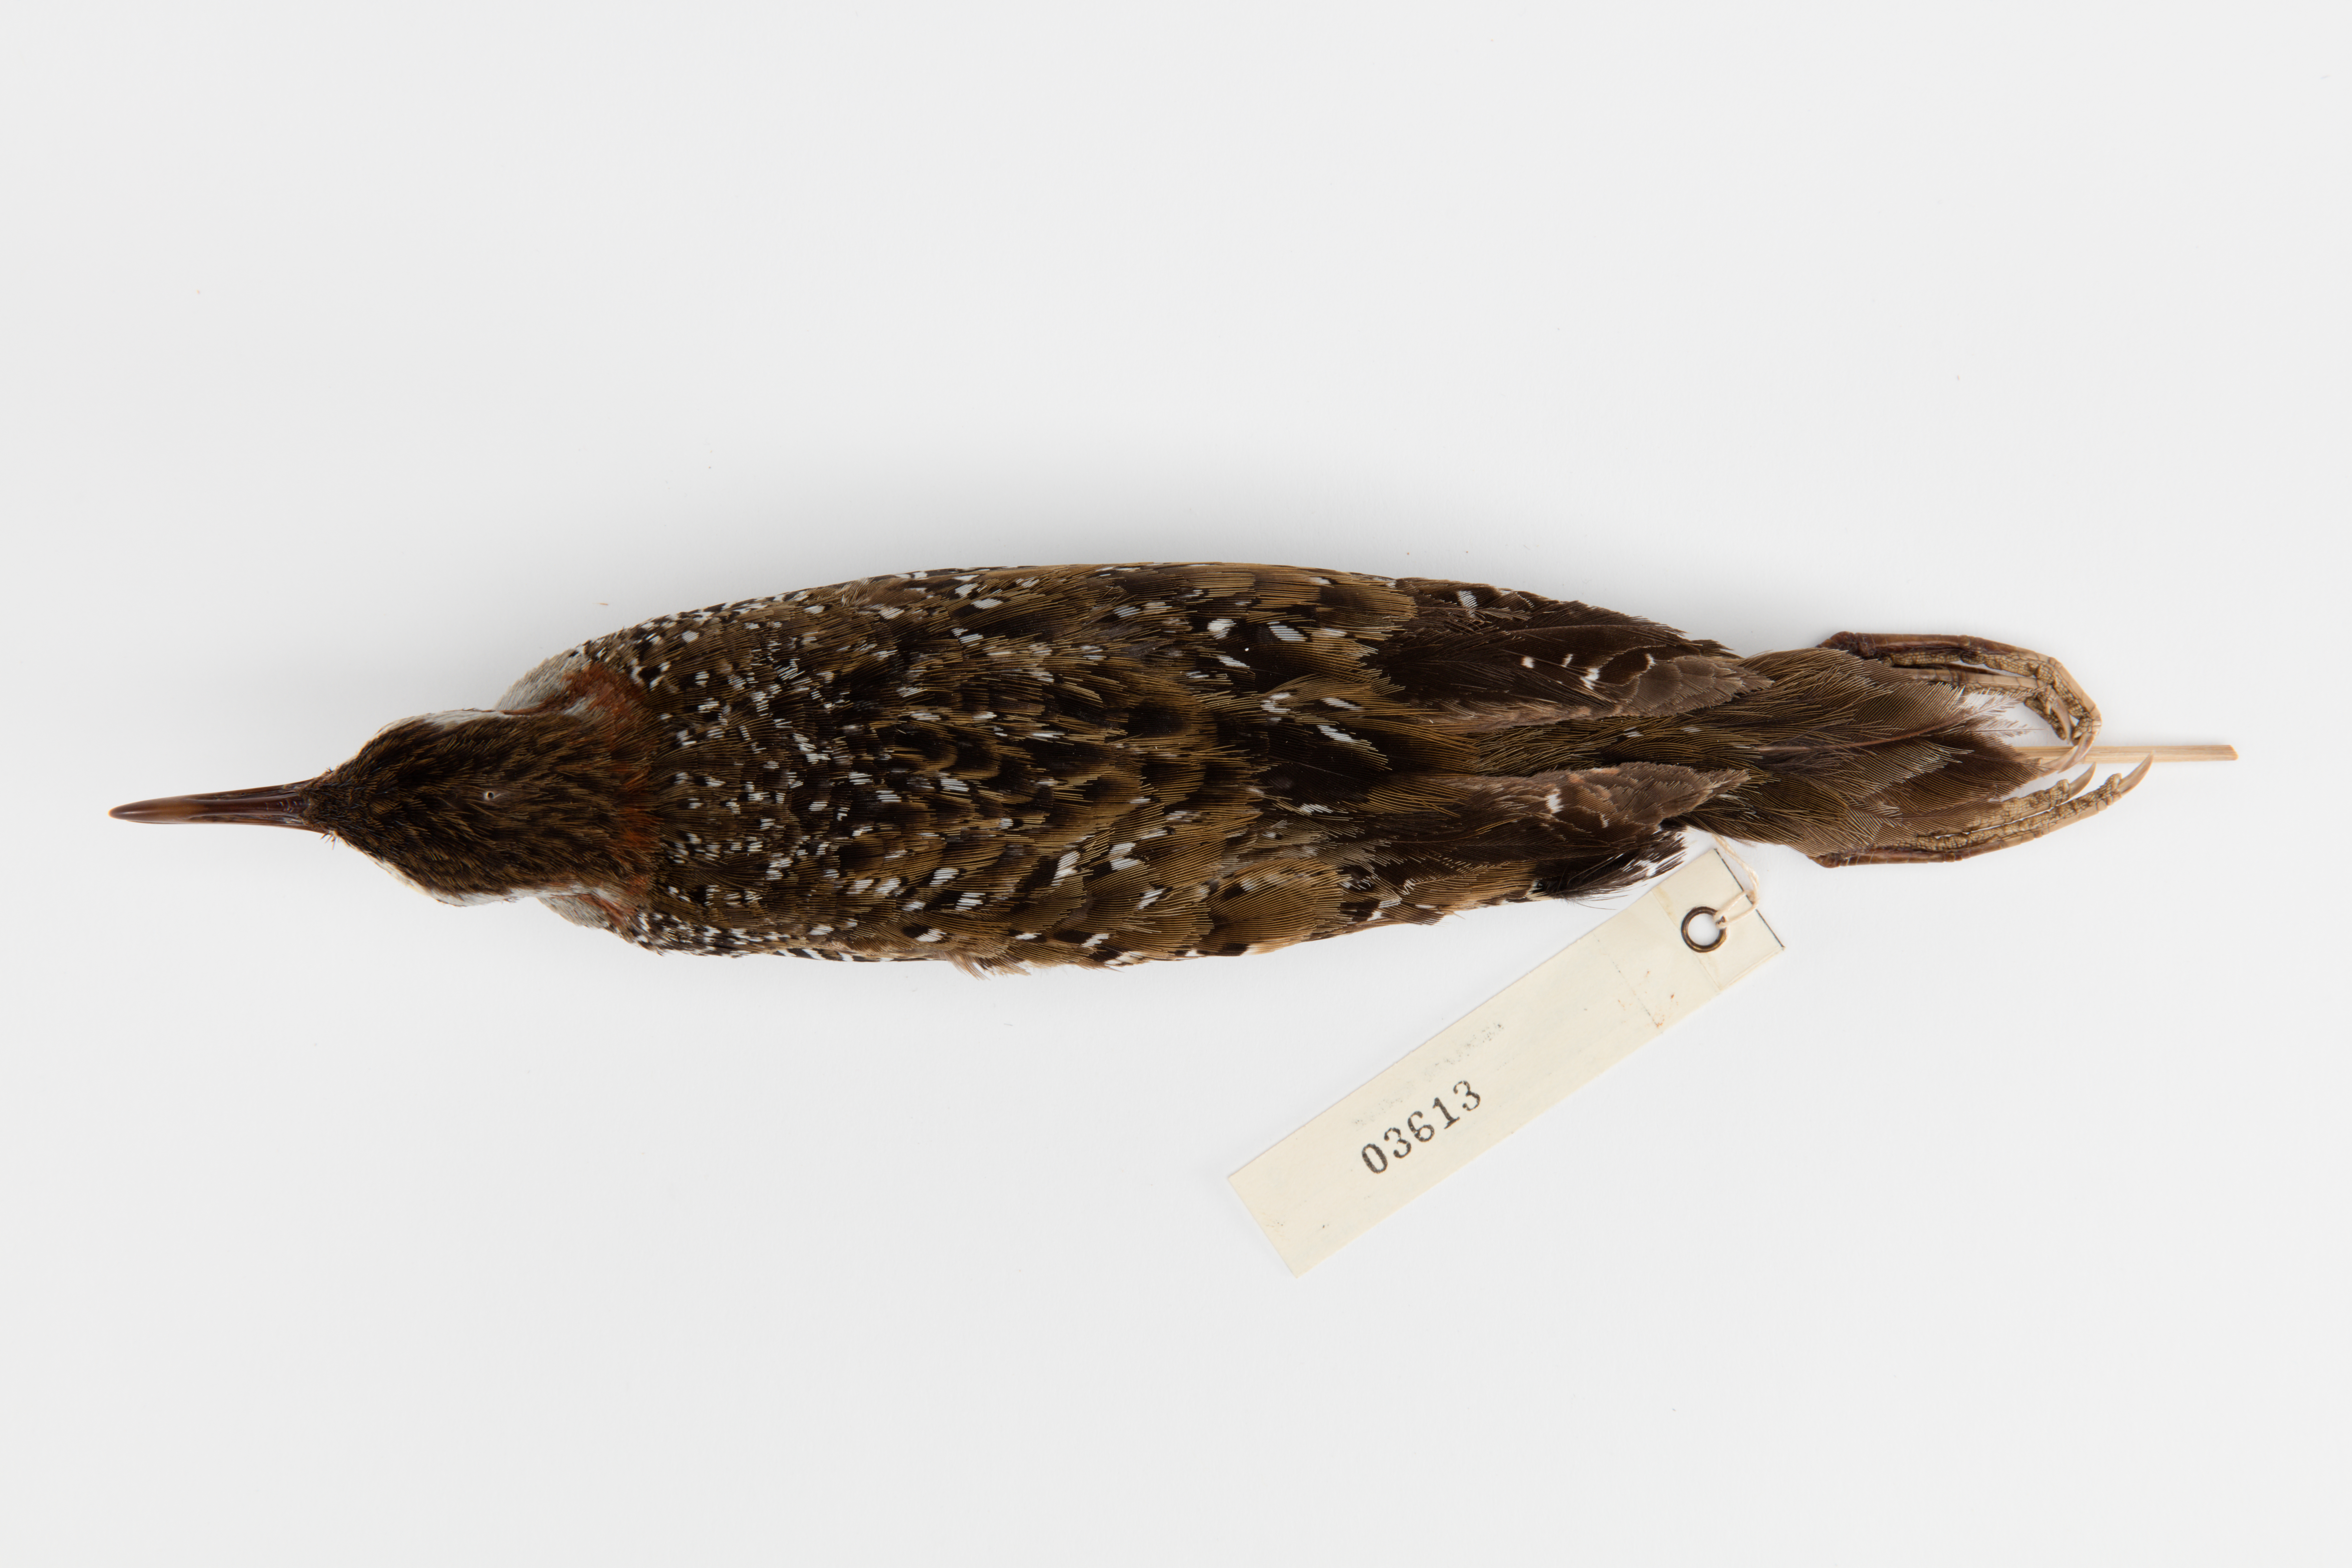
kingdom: Animalia
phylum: Chordata
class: Aves
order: Gruiformes
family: Rallidae
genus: Gallirallus
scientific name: Gallirallus philippensis
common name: Buff-banded rail
